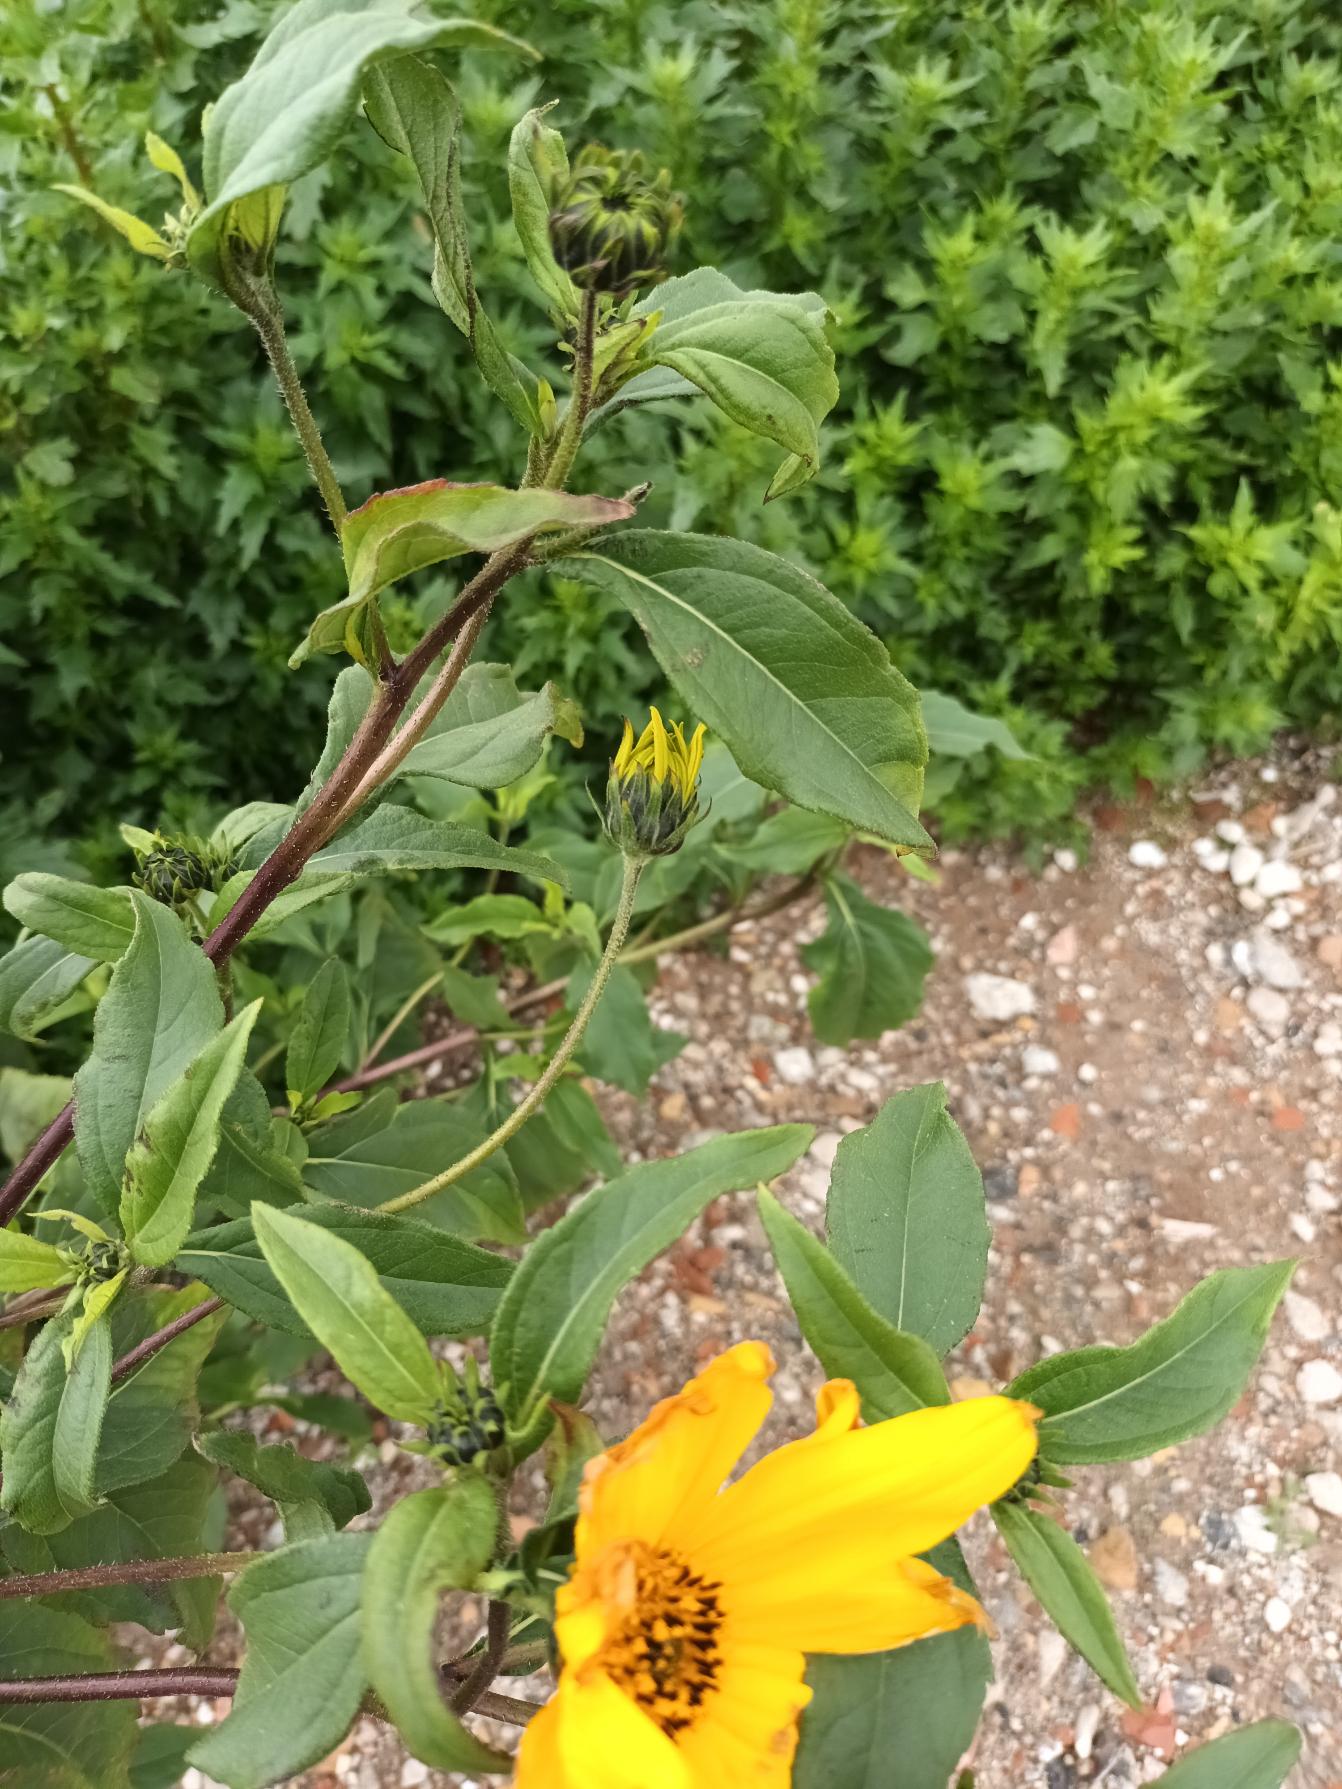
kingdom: Plantae
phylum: Tracheophyta
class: Magnoliopsida
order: Asterales
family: Asteraceae
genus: Helianthus
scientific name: Helianthus tuberosus
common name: Jordskok
